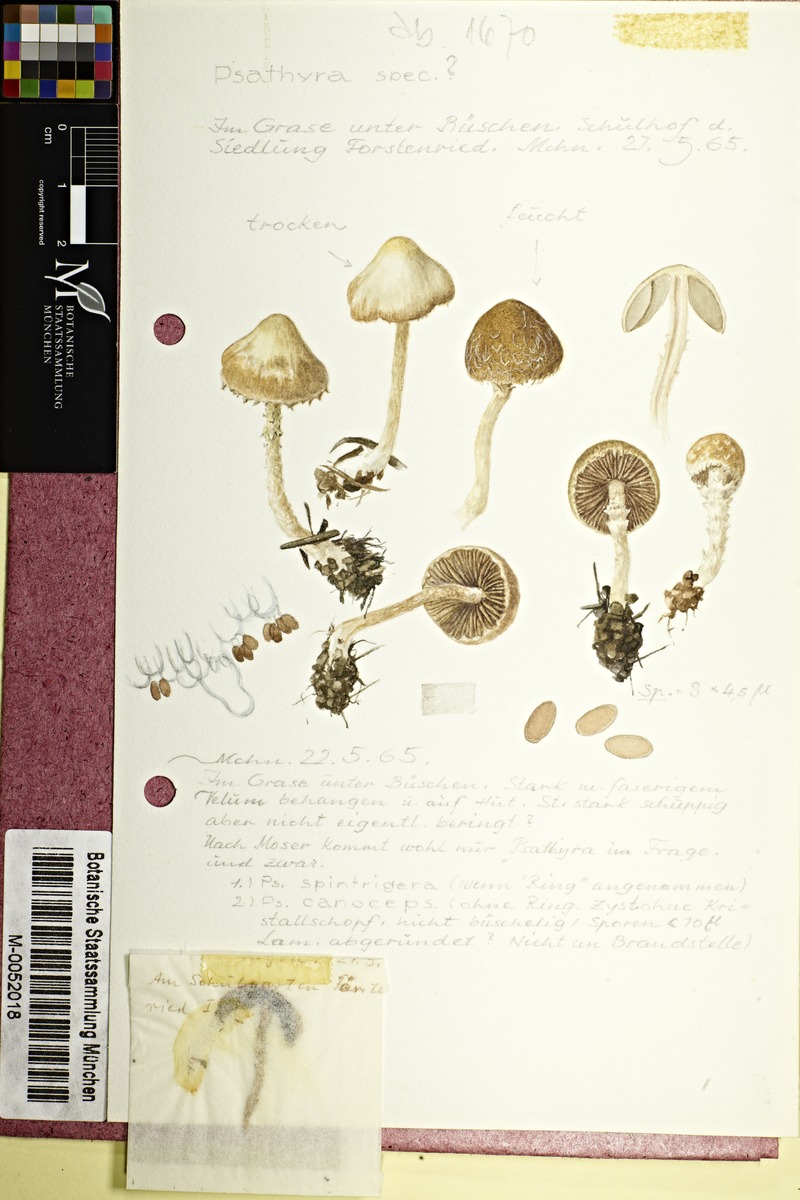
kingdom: Fungi
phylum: Basidiomycota
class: Agaricomycetes
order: Agaricales
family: Psathyrellaceae
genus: Psathyrella
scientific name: Psathyrella
